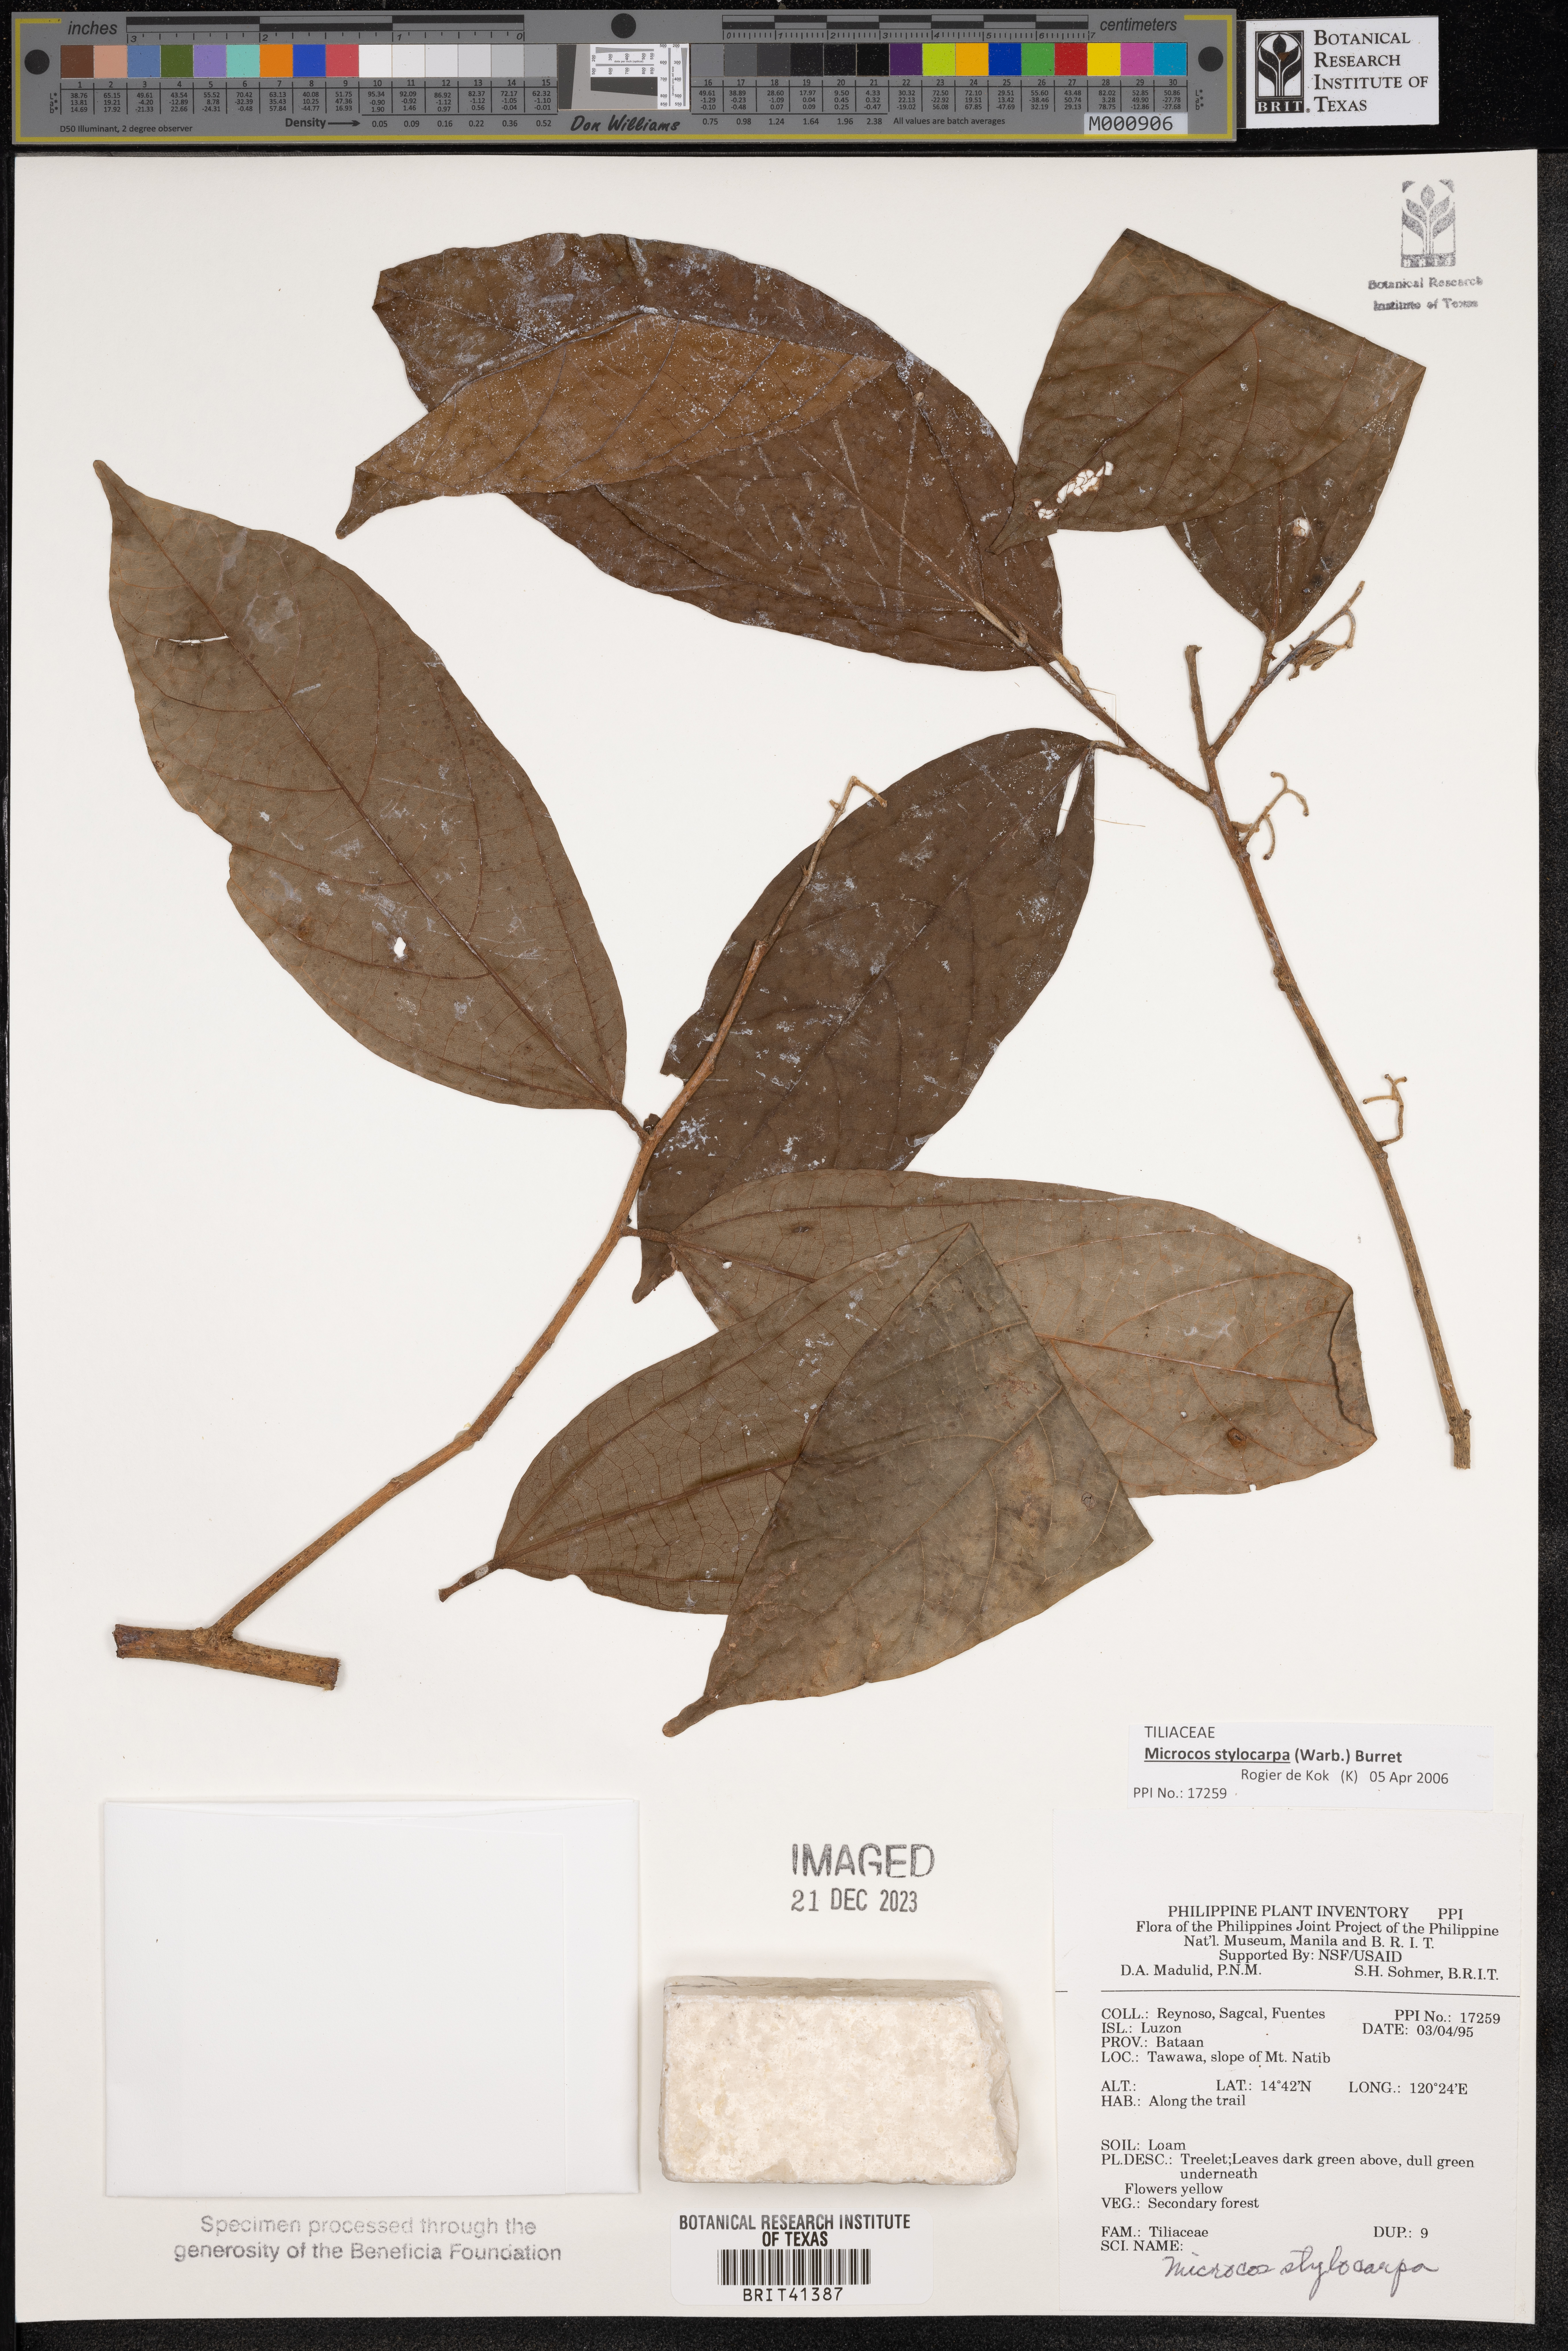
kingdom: Plantae
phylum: Tracheophyta
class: Magnoliopsida
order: Malvales
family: Malvaceae
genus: Microcos
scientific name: Microcos triflora
